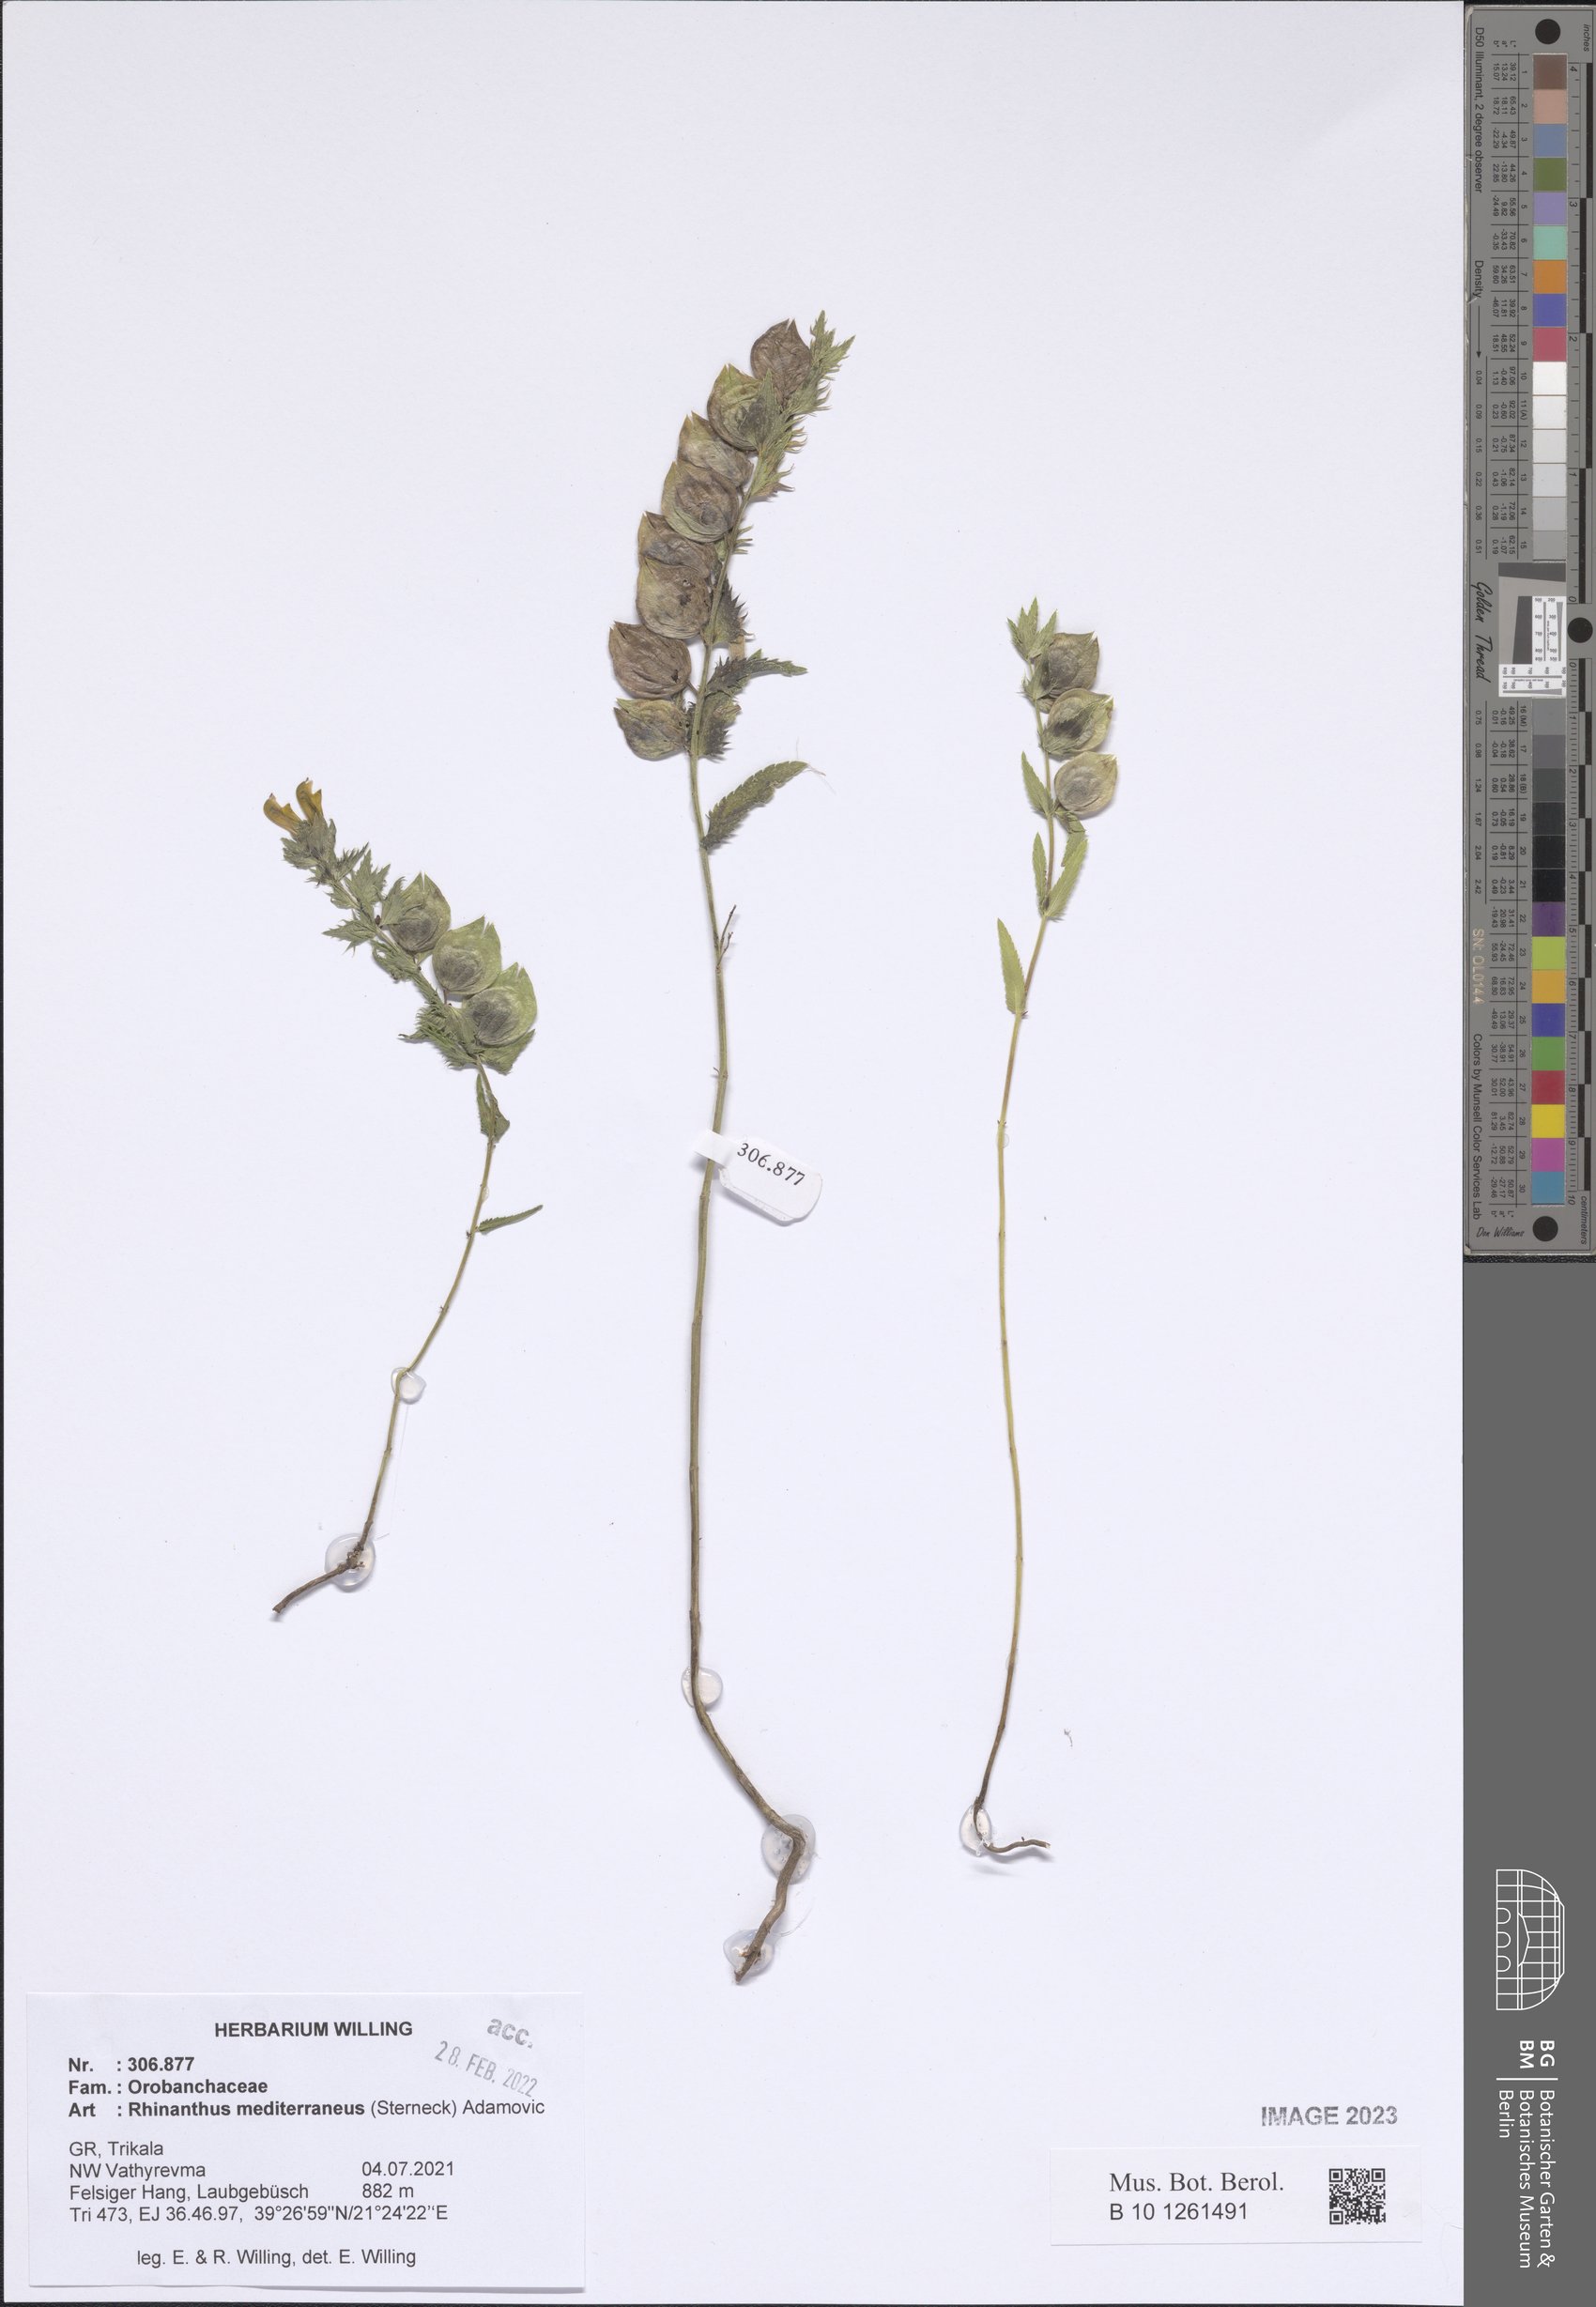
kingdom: Plantae
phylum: Tracheophyta
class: Magnoliopsida
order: Lamiales
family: Orobanchaceae
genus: Rhinanthus
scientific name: Rhinanthus pumilus
